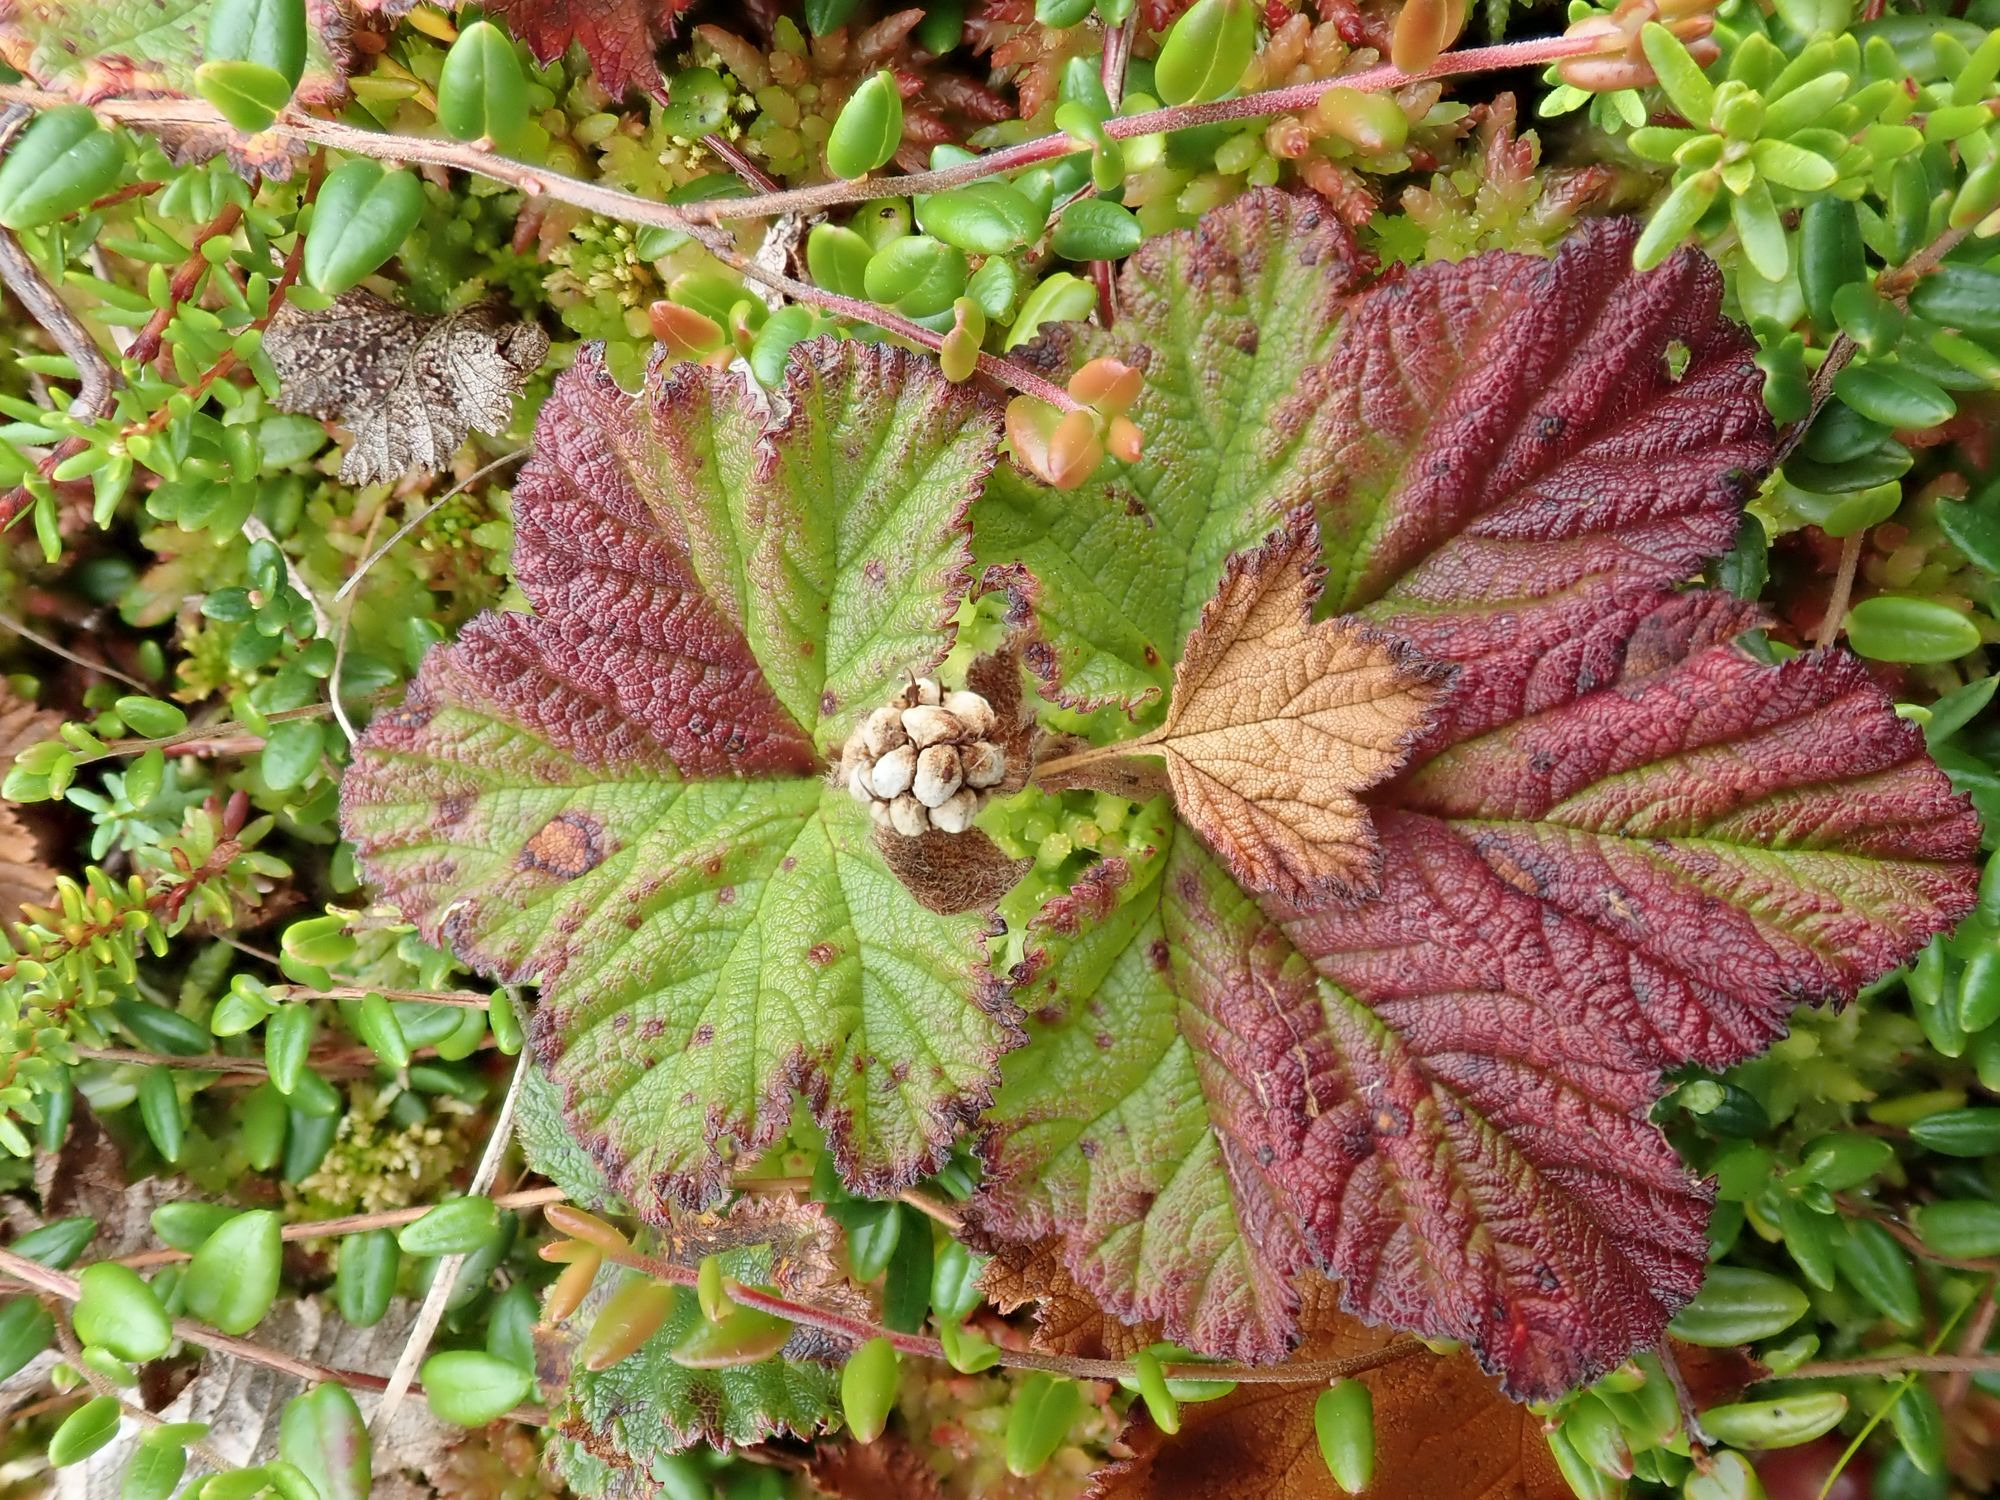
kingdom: Plantae
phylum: Tracheophyta
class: Magnoliopsida
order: Rosales
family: Rosaceae
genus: Rubus
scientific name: Rubus chamaemorus
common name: Multebær
